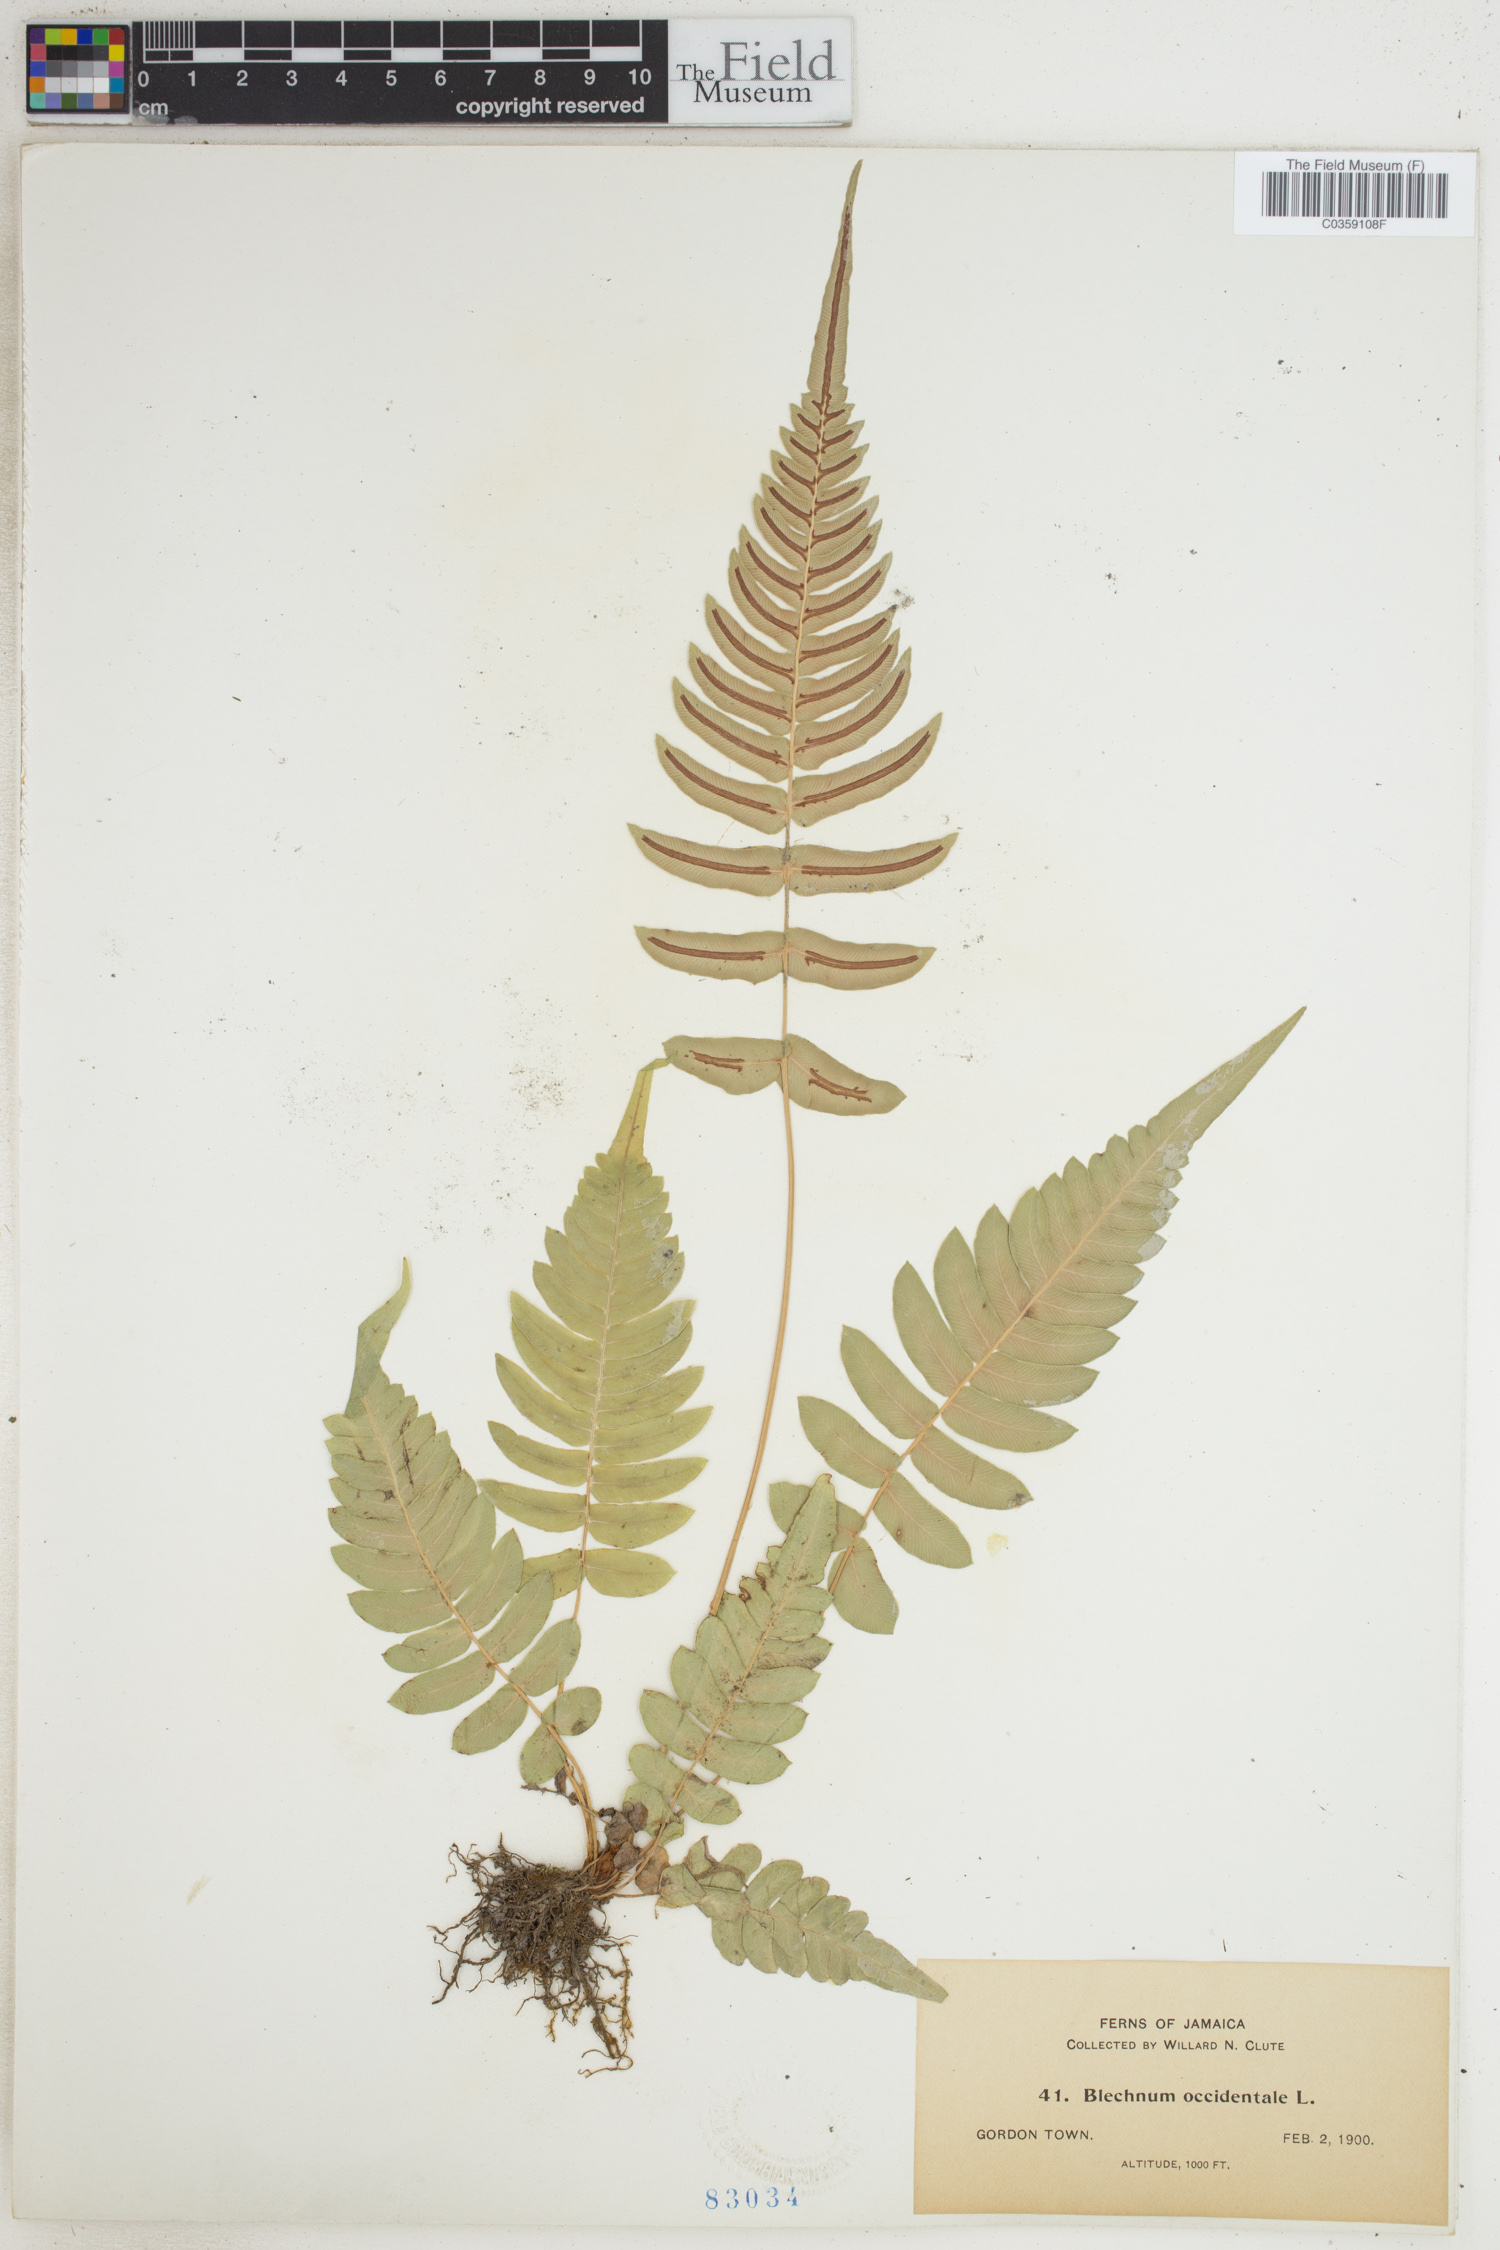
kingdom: Plantae
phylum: Tracheophyta
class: Polypodiopsida
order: Polypodiales
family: Blechnaceae
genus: Blechnum
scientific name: Blechnum occidentale
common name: Hammock fern
